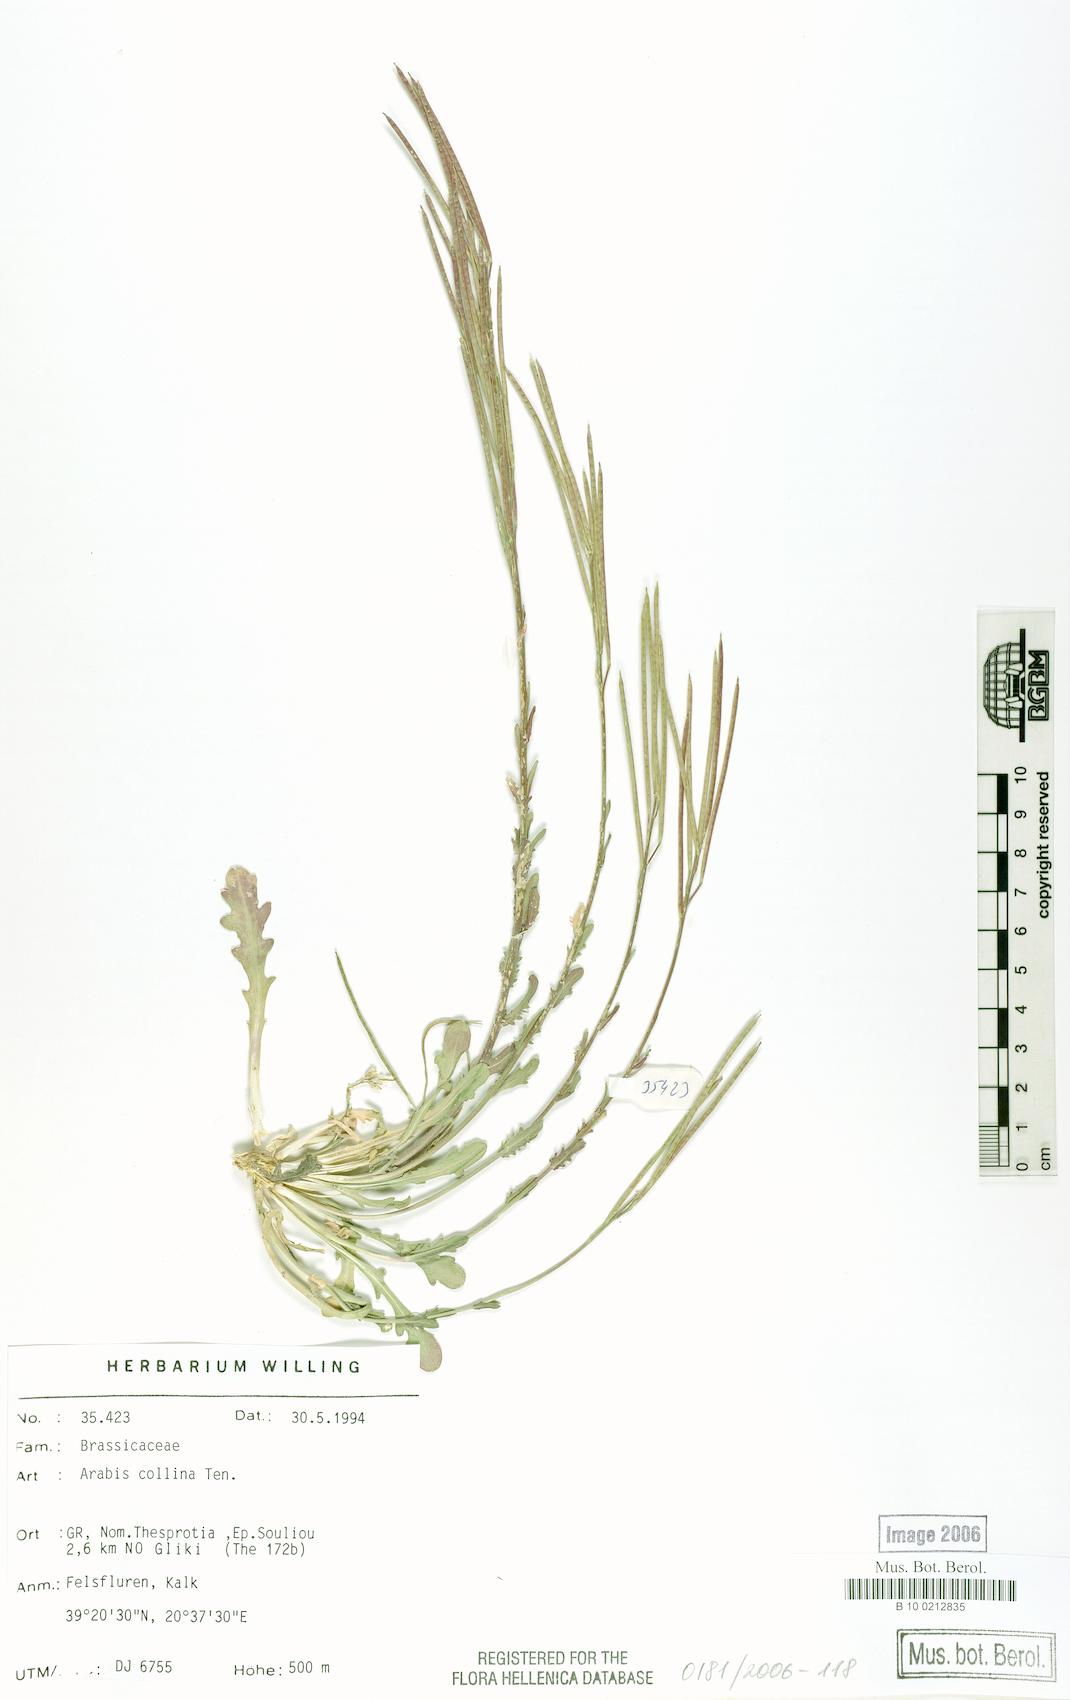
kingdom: Plantae
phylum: Tracheophyta
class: Magnoliopsida
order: Brassicales
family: Brassicaceae
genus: Arabis
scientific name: Arabis collina
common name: Rosy cress
